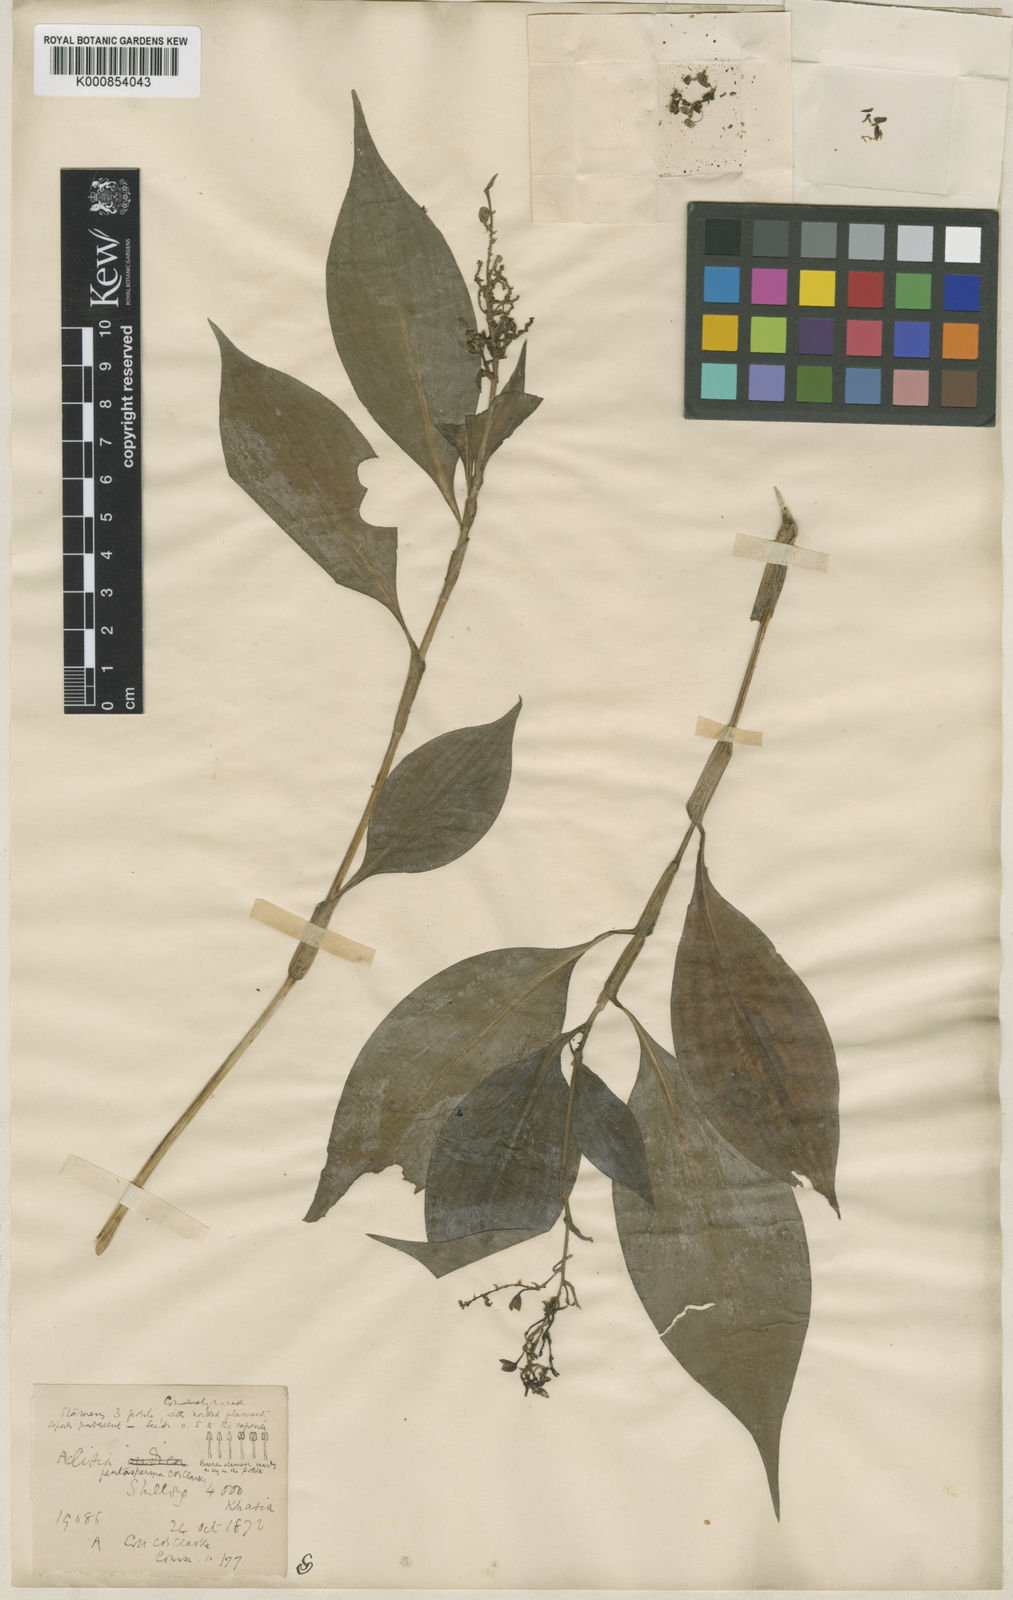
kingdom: Plantae
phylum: Tracheophyta
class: Liliopsida
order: Commelinales
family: Commelinaceae
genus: Pollia
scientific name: Pollia pentasperma
